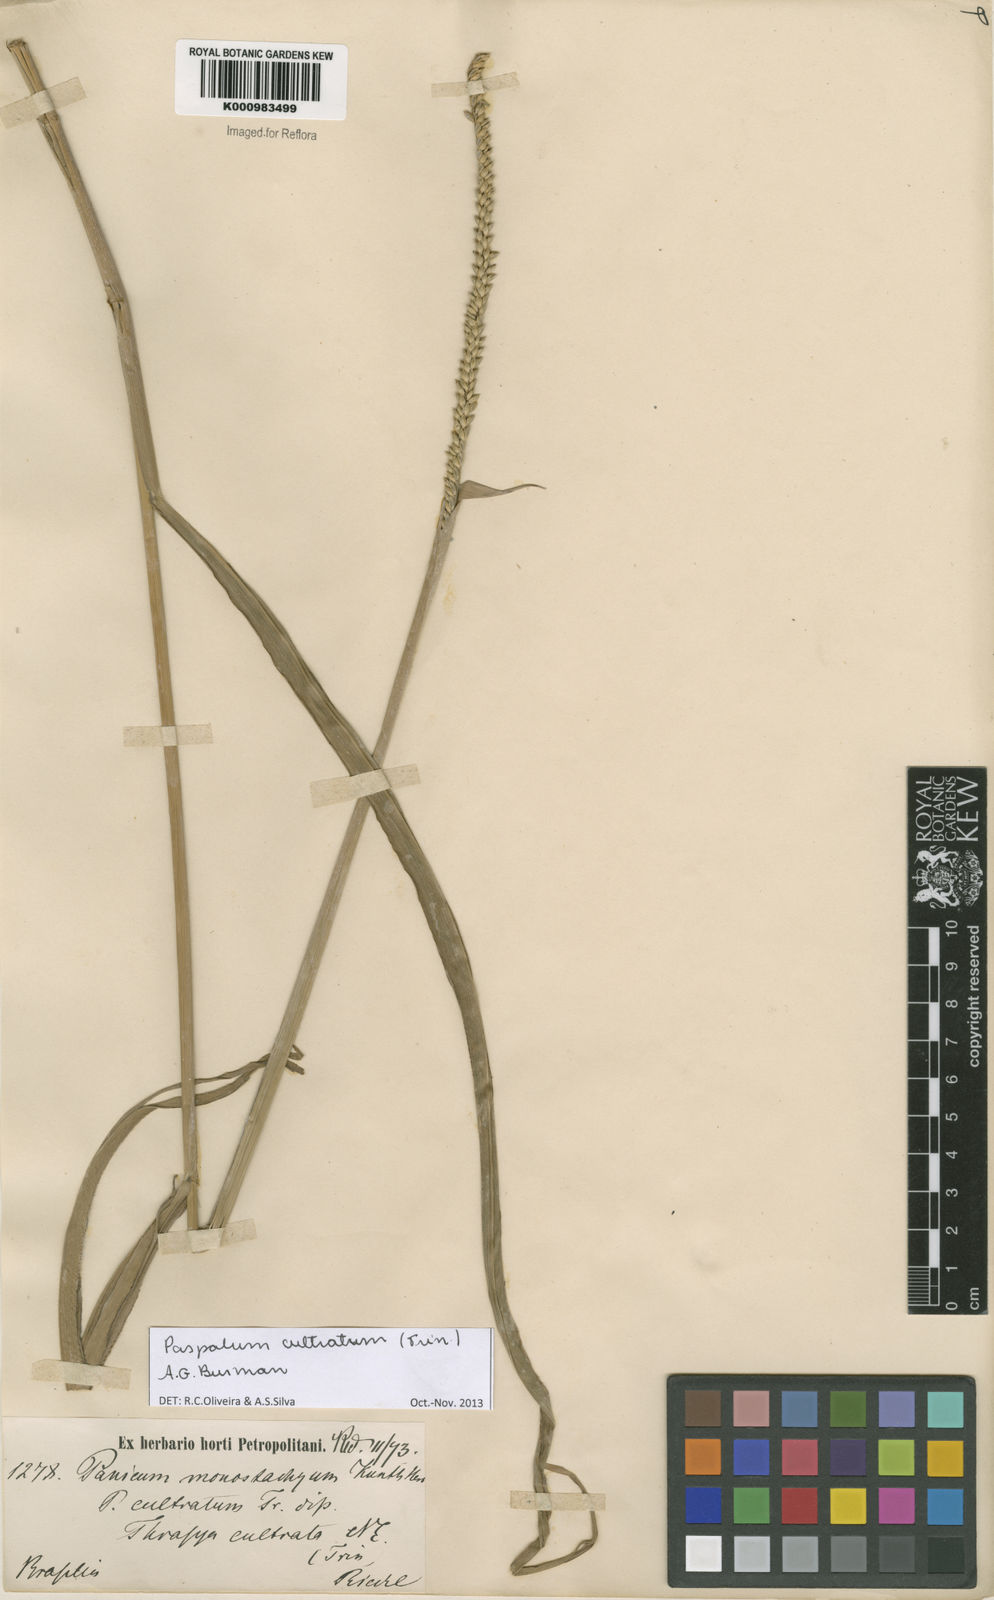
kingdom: Plantae
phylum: Tracheophyta
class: Liliopsida
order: Poales
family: Poaceae
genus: Paspalum
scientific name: Paspalum
